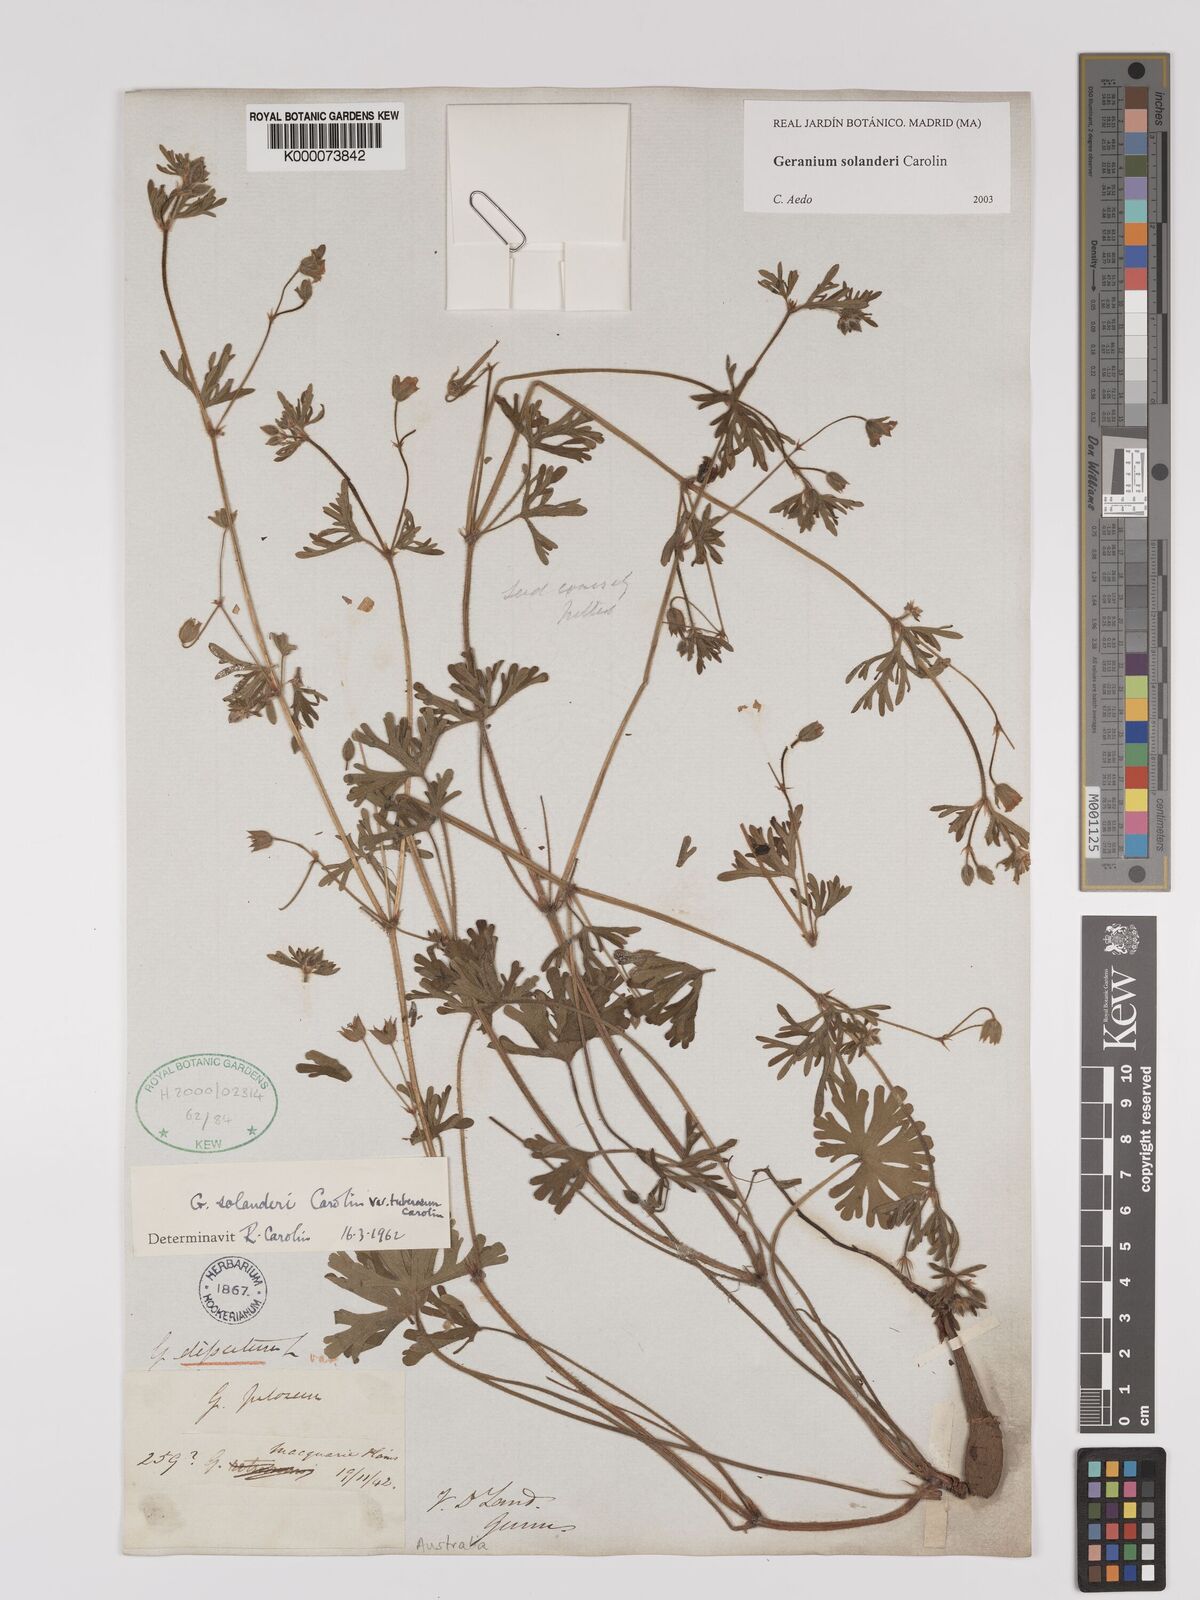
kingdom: Plantae
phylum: Tracheophyta
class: Magnoliopsida
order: Geraniales
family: Geraniaceae
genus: Geranium
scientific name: Geranium solanderi
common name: Solander's geranium
